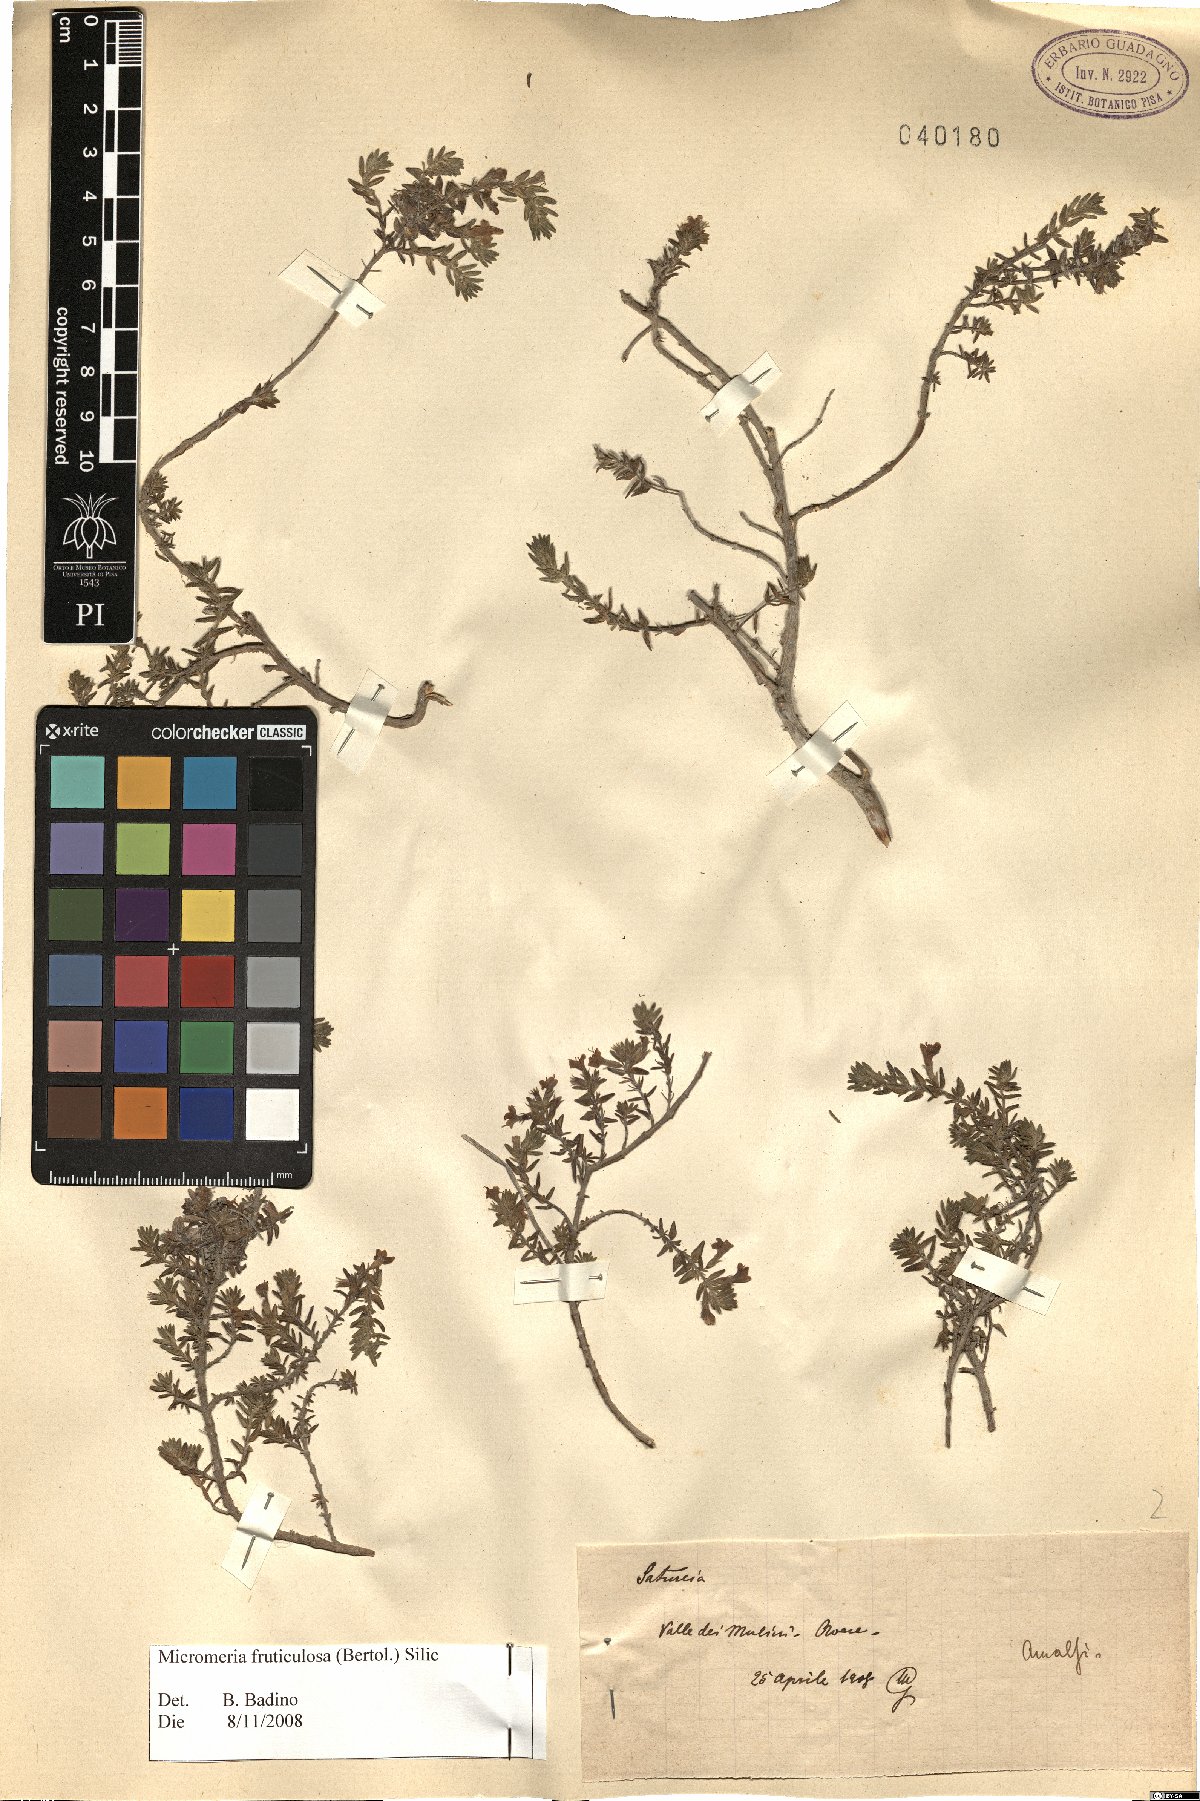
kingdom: Plantae
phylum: Tracheophyta
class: Magnoliopsida
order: Lamiales
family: Lamiaceae
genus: Micromeria
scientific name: Micromeria graeca
